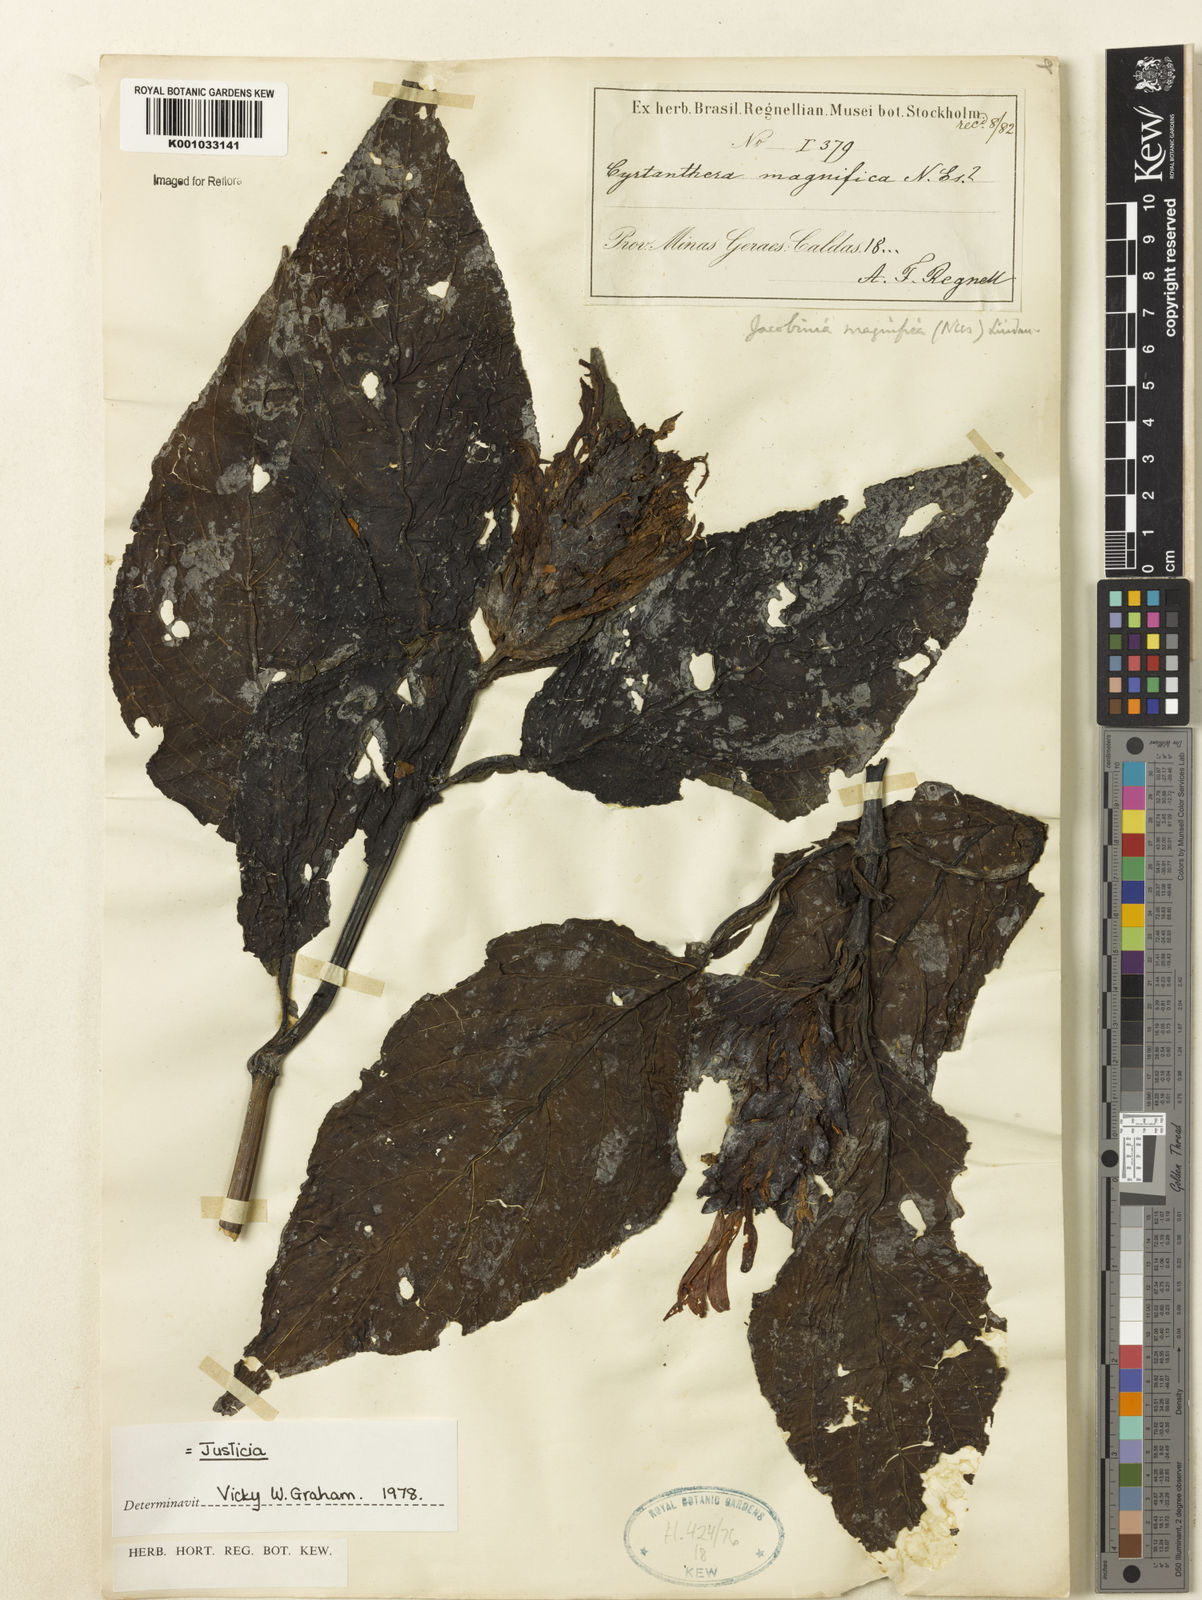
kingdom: Plantae
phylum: Tracheophyta
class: Magnoliopsida
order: Lamiales
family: Acanthaceae
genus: Justicia
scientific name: Justicia carnea
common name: Brazilian-plume
